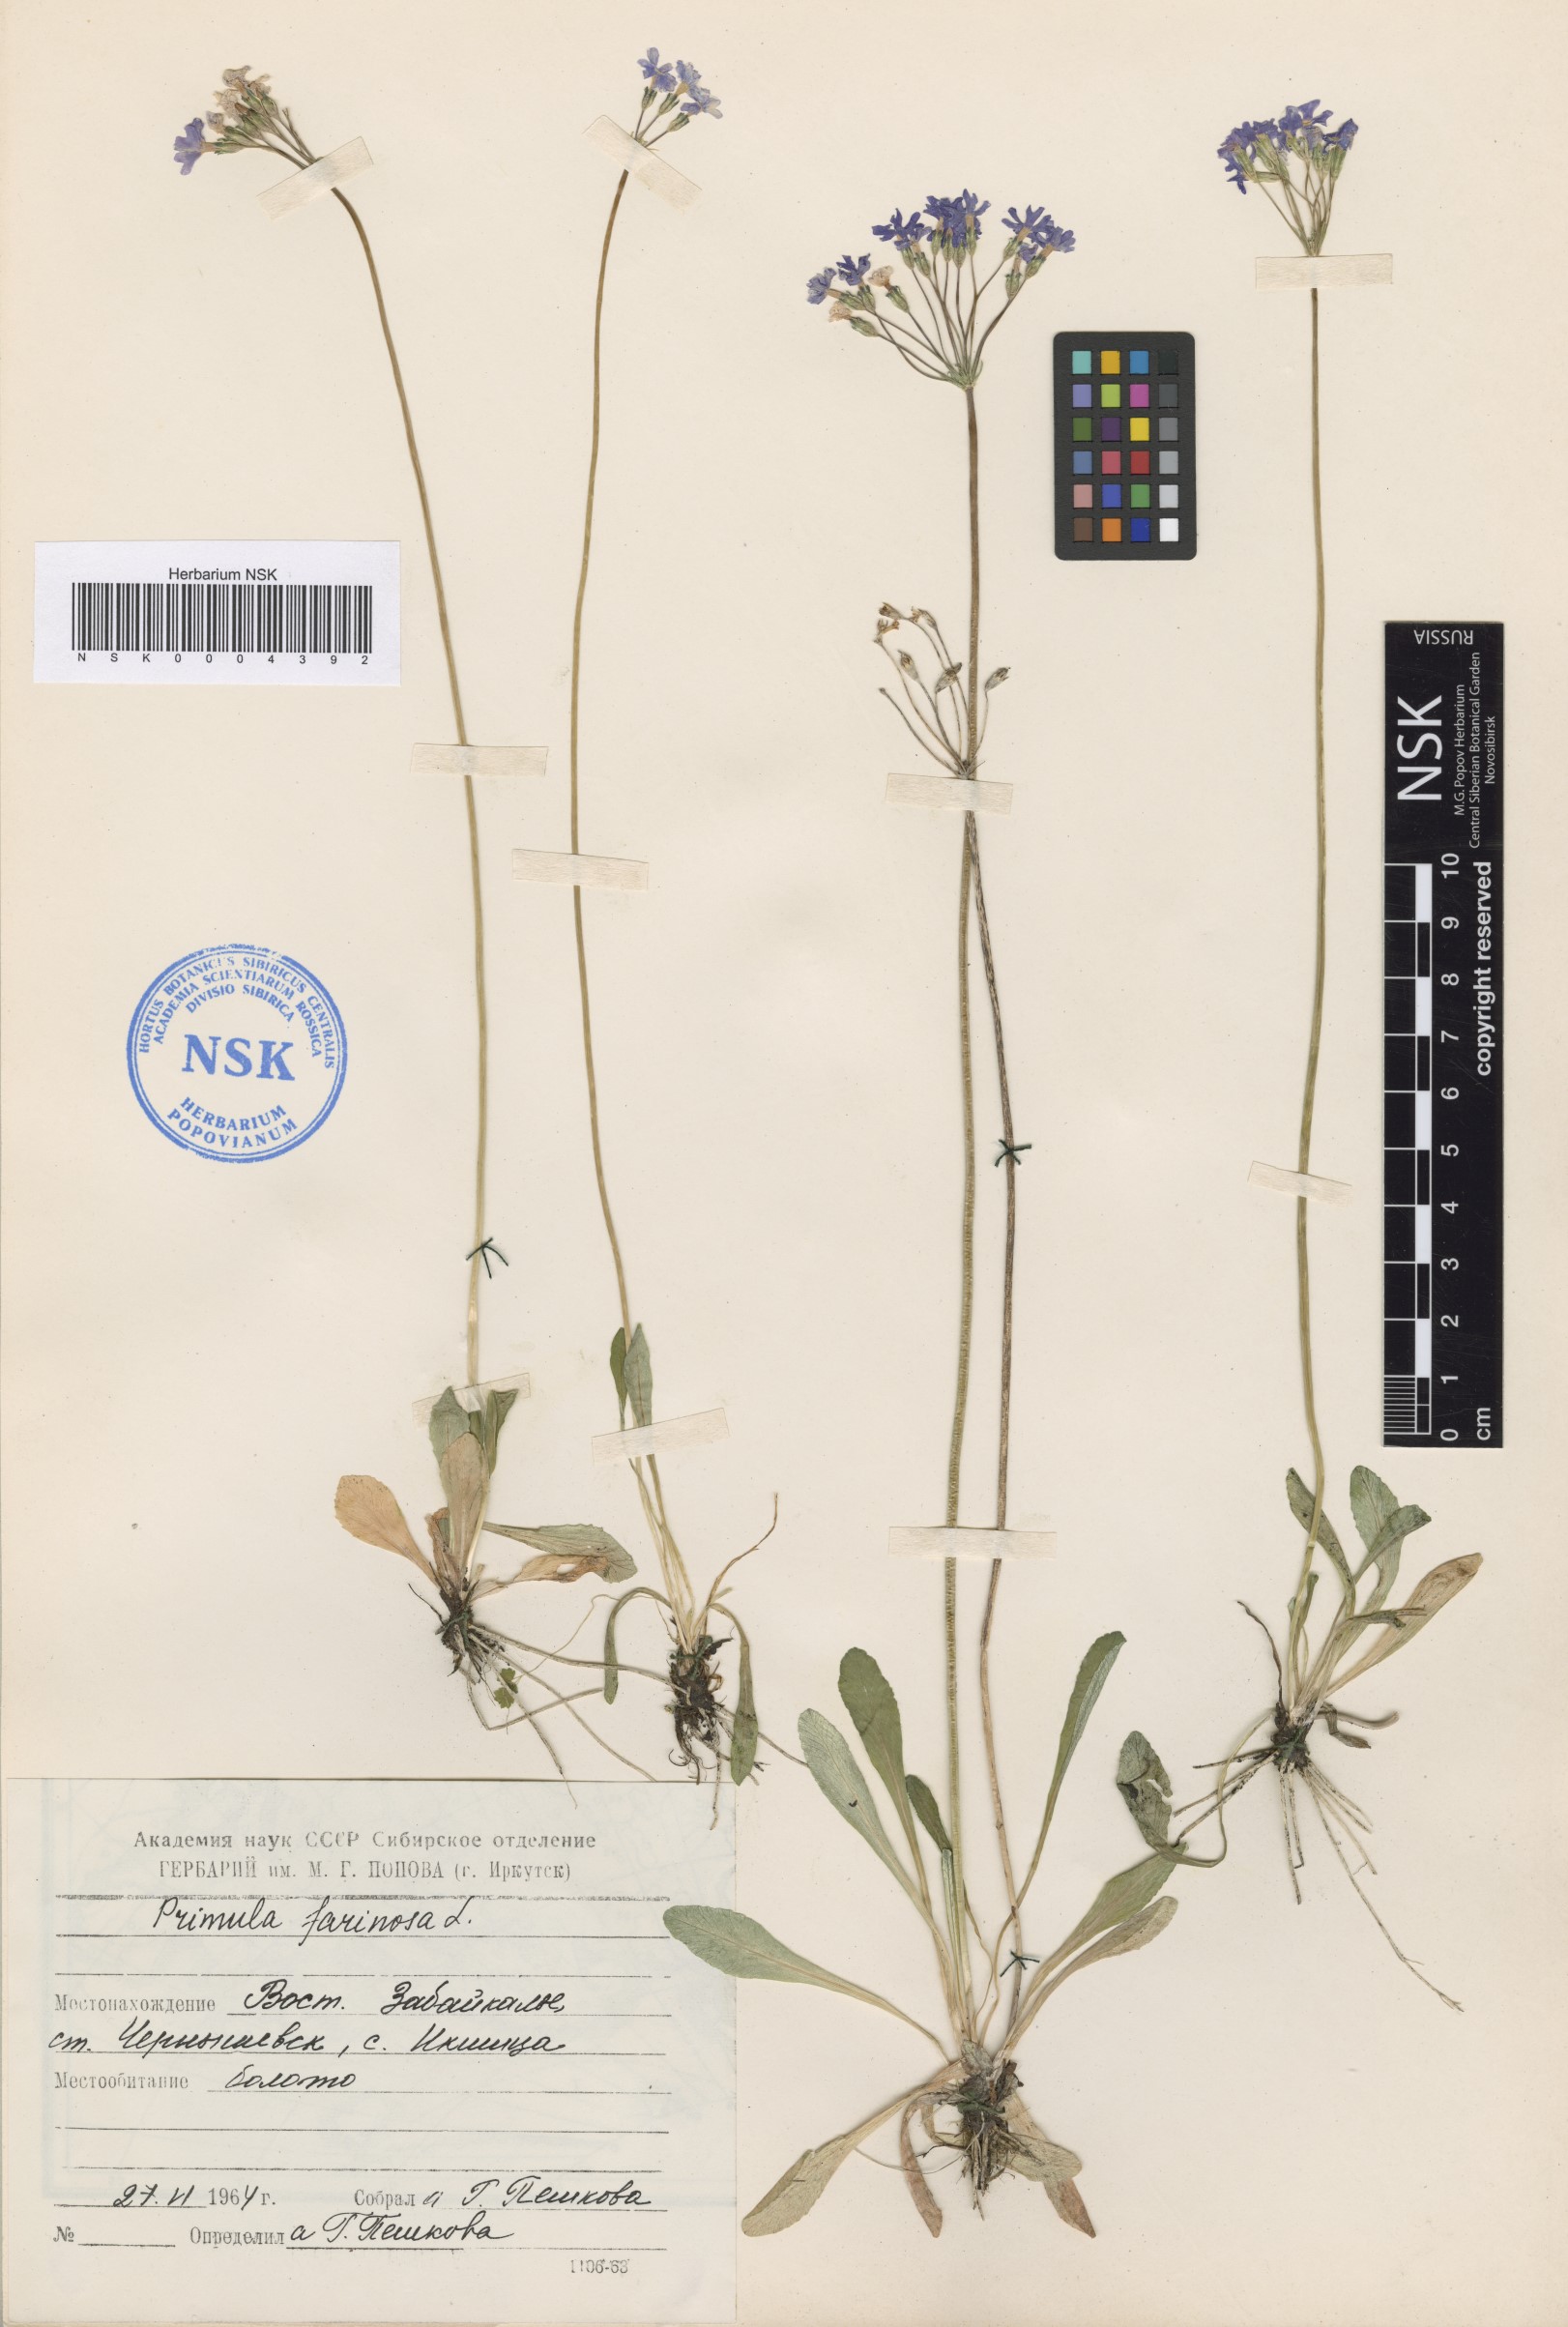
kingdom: Plantae
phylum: Tracheophyta
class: Magnoliopsida
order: Ericales
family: Primulaceae
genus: Primula
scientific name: Primula farinosa
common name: Bird's-eye primrose
